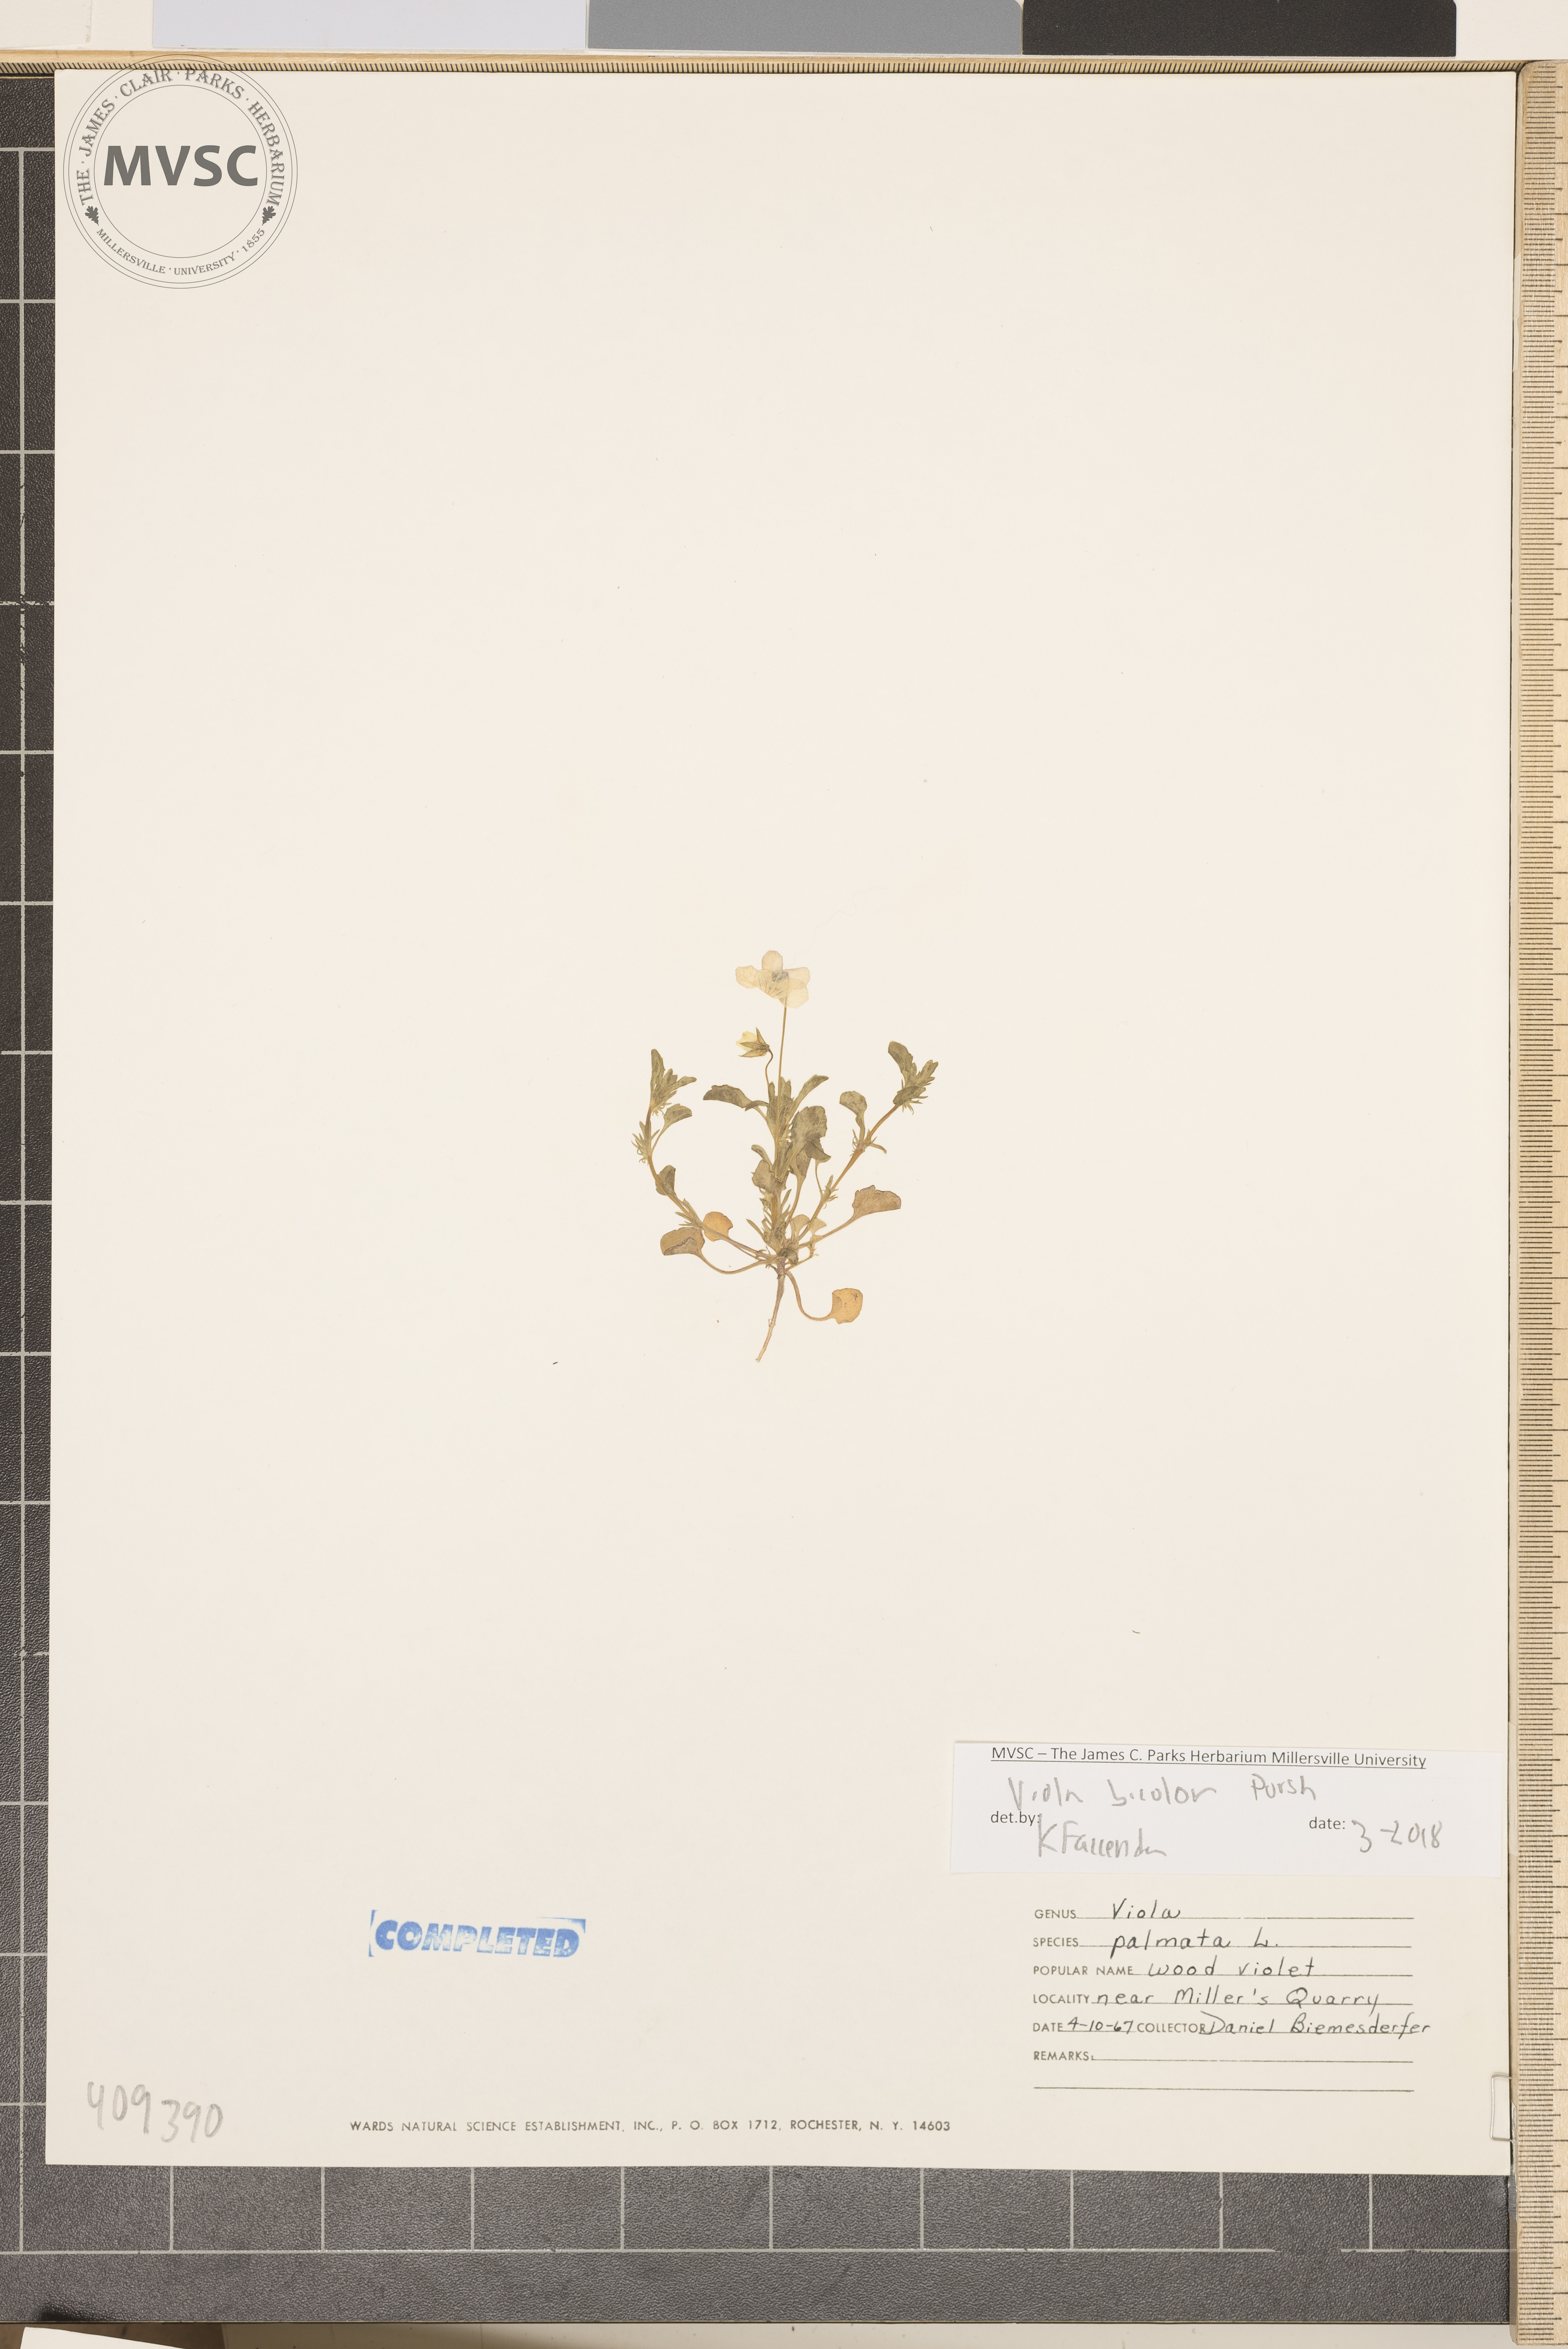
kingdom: Plantae
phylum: Tracheophyta
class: Magnoliopsida
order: Malpighiales
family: Violaceae
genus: Viola
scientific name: Viola rafinesquei
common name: American field pansy
